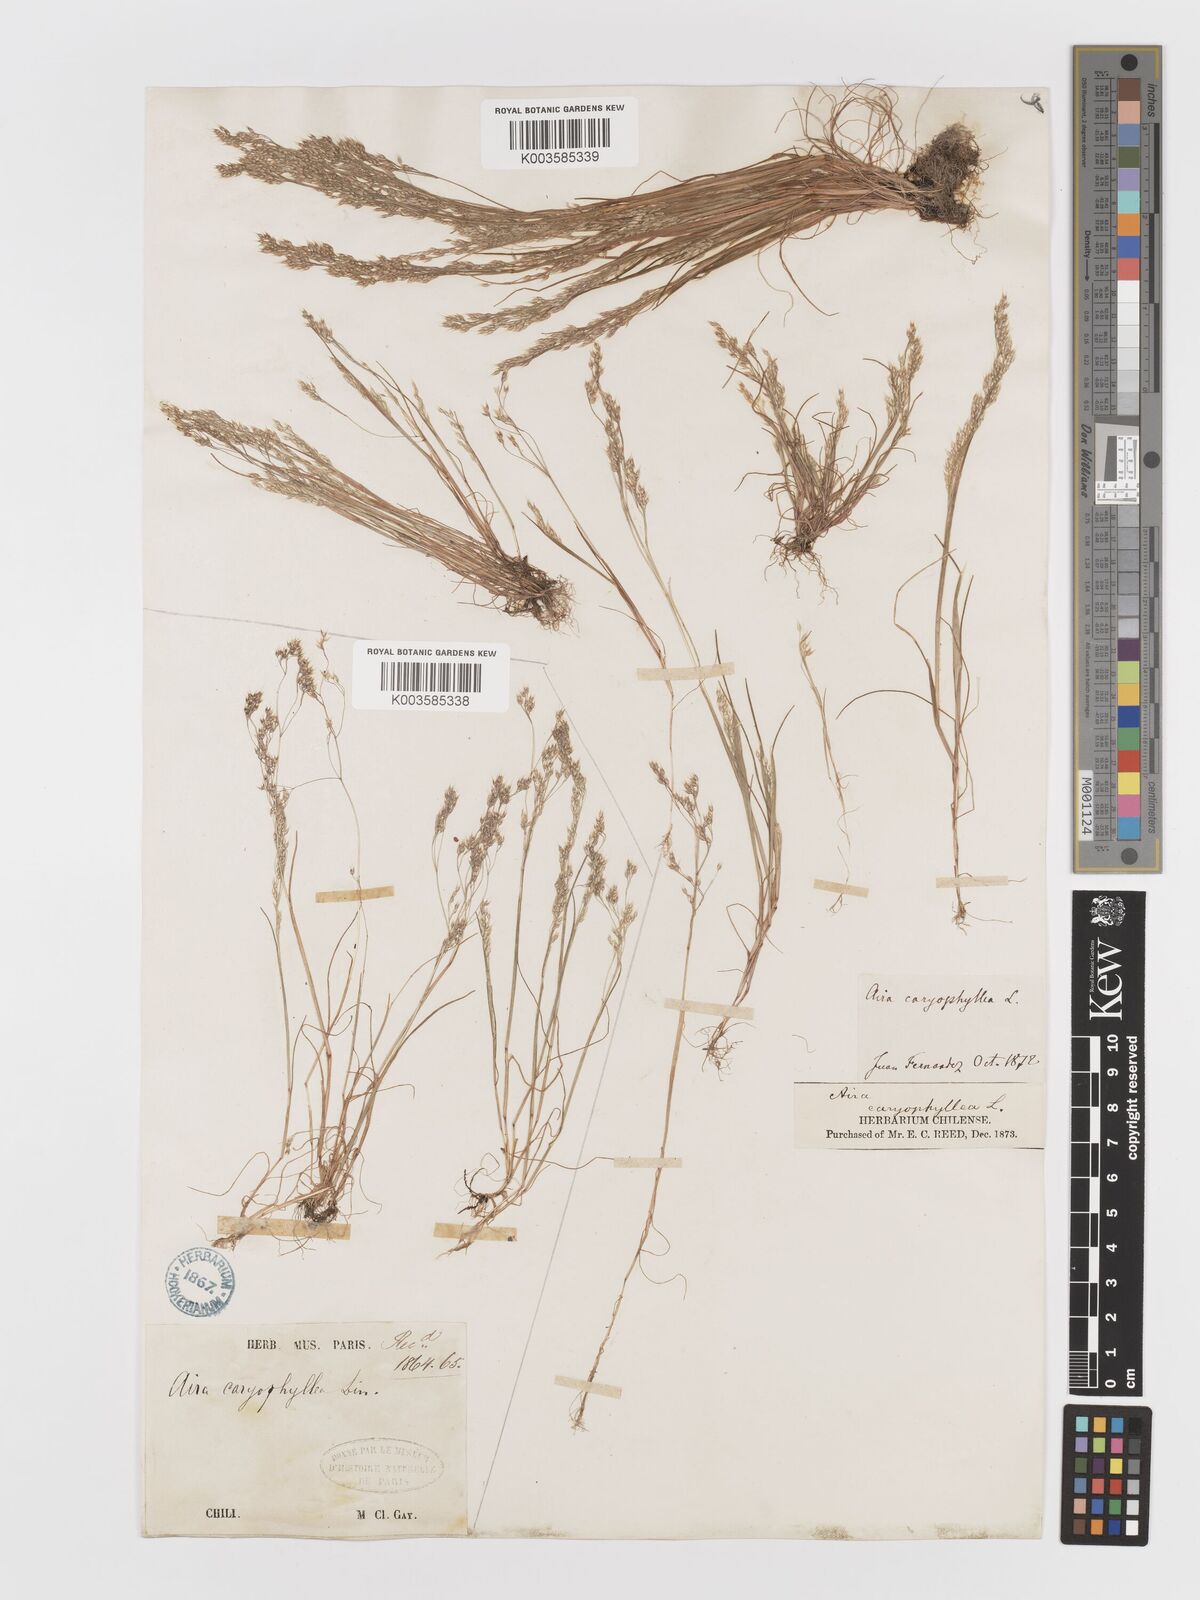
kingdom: Plantae
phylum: Tracheophyta
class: Liliopsida
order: Poales
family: Poaceae
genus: Aira
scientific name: Aira caryophyllea
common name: Silver hairgrass
